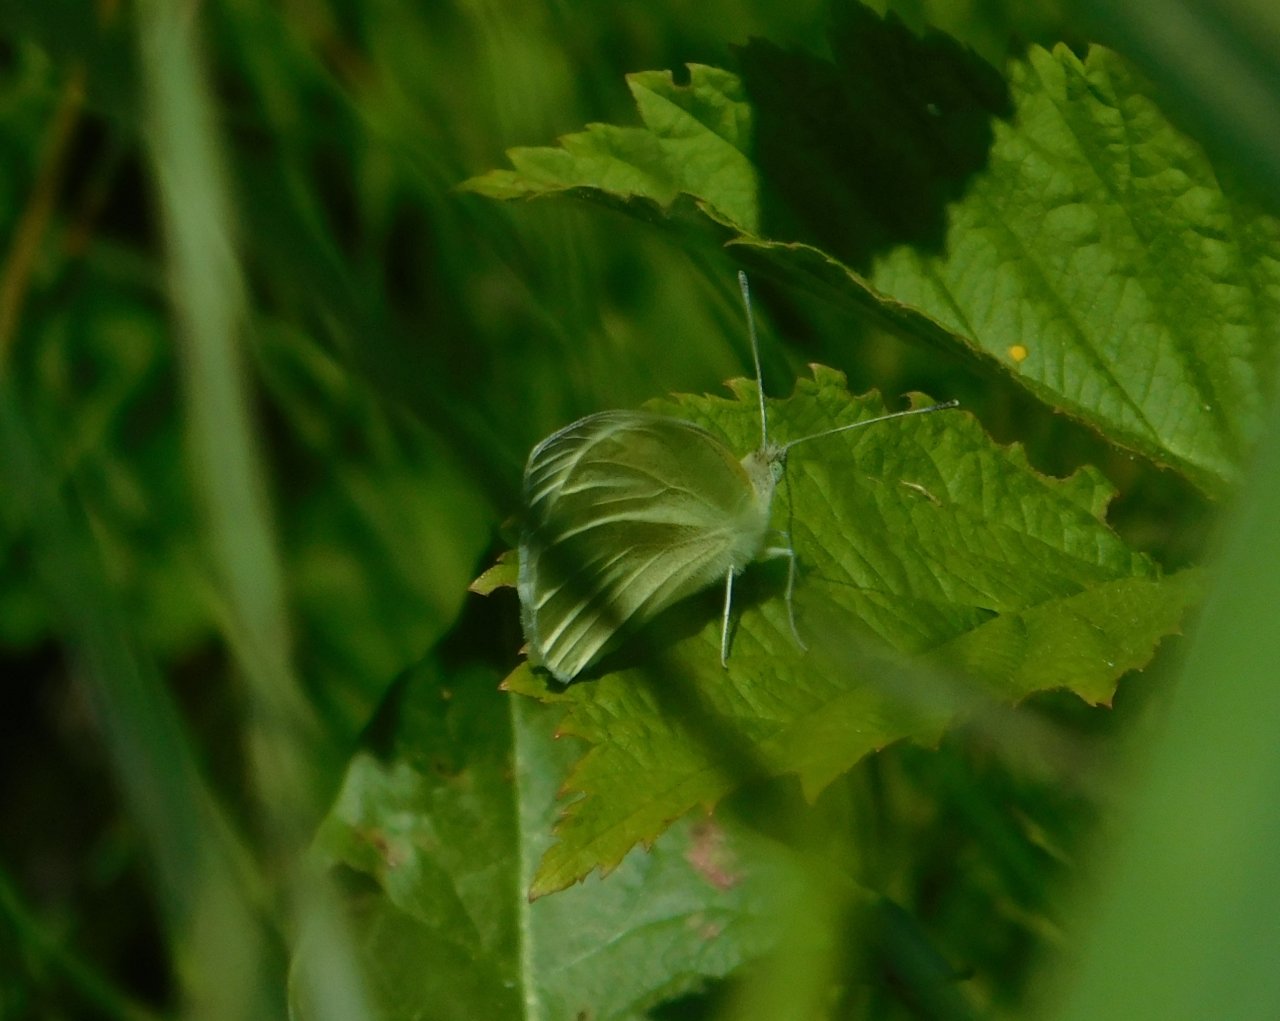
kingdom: Animalia
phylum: Arthropoda
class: Insecta
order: Lepidoptera
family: Pieridae
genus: Pieris
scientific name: Pieris rapae
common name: Cabbage White
